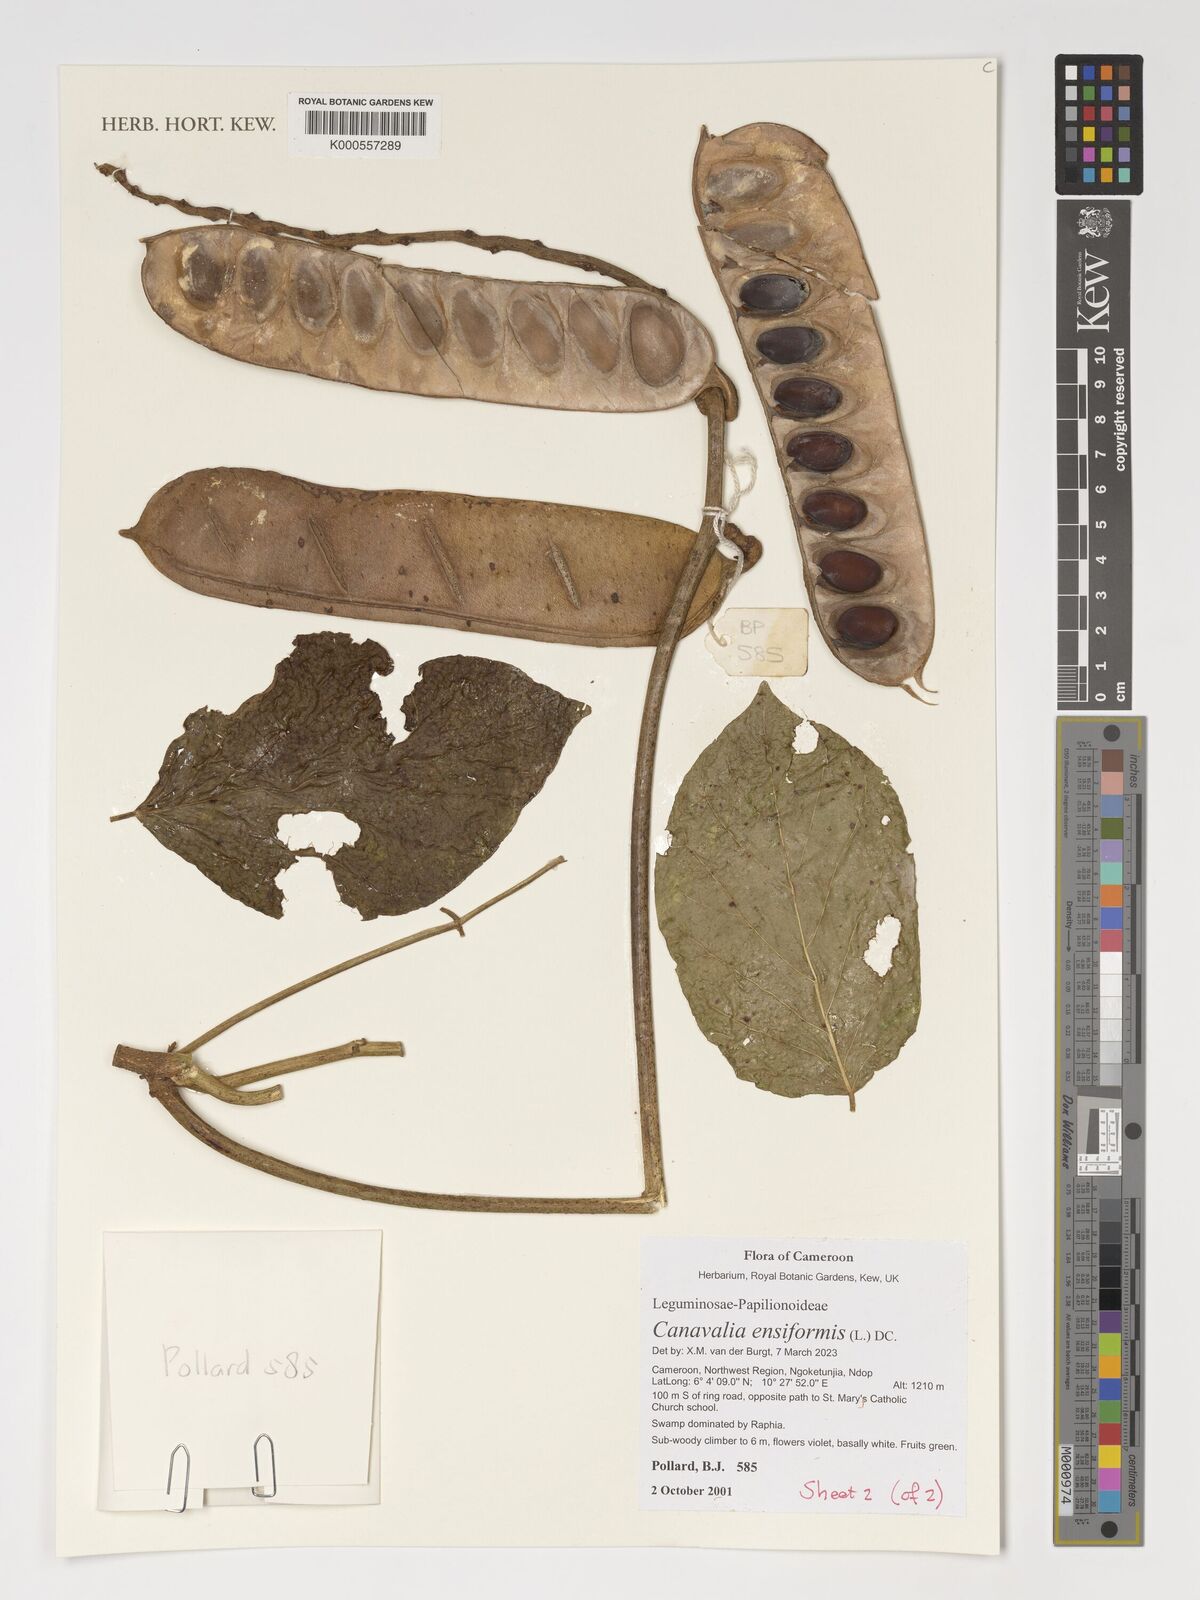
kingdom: Plantae
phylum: Tracheophyta
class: Magnoliopsida
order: Fabales
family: Fabaceae
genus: Canavalia
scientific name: Canavalia ensiformis
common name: Jack bean
